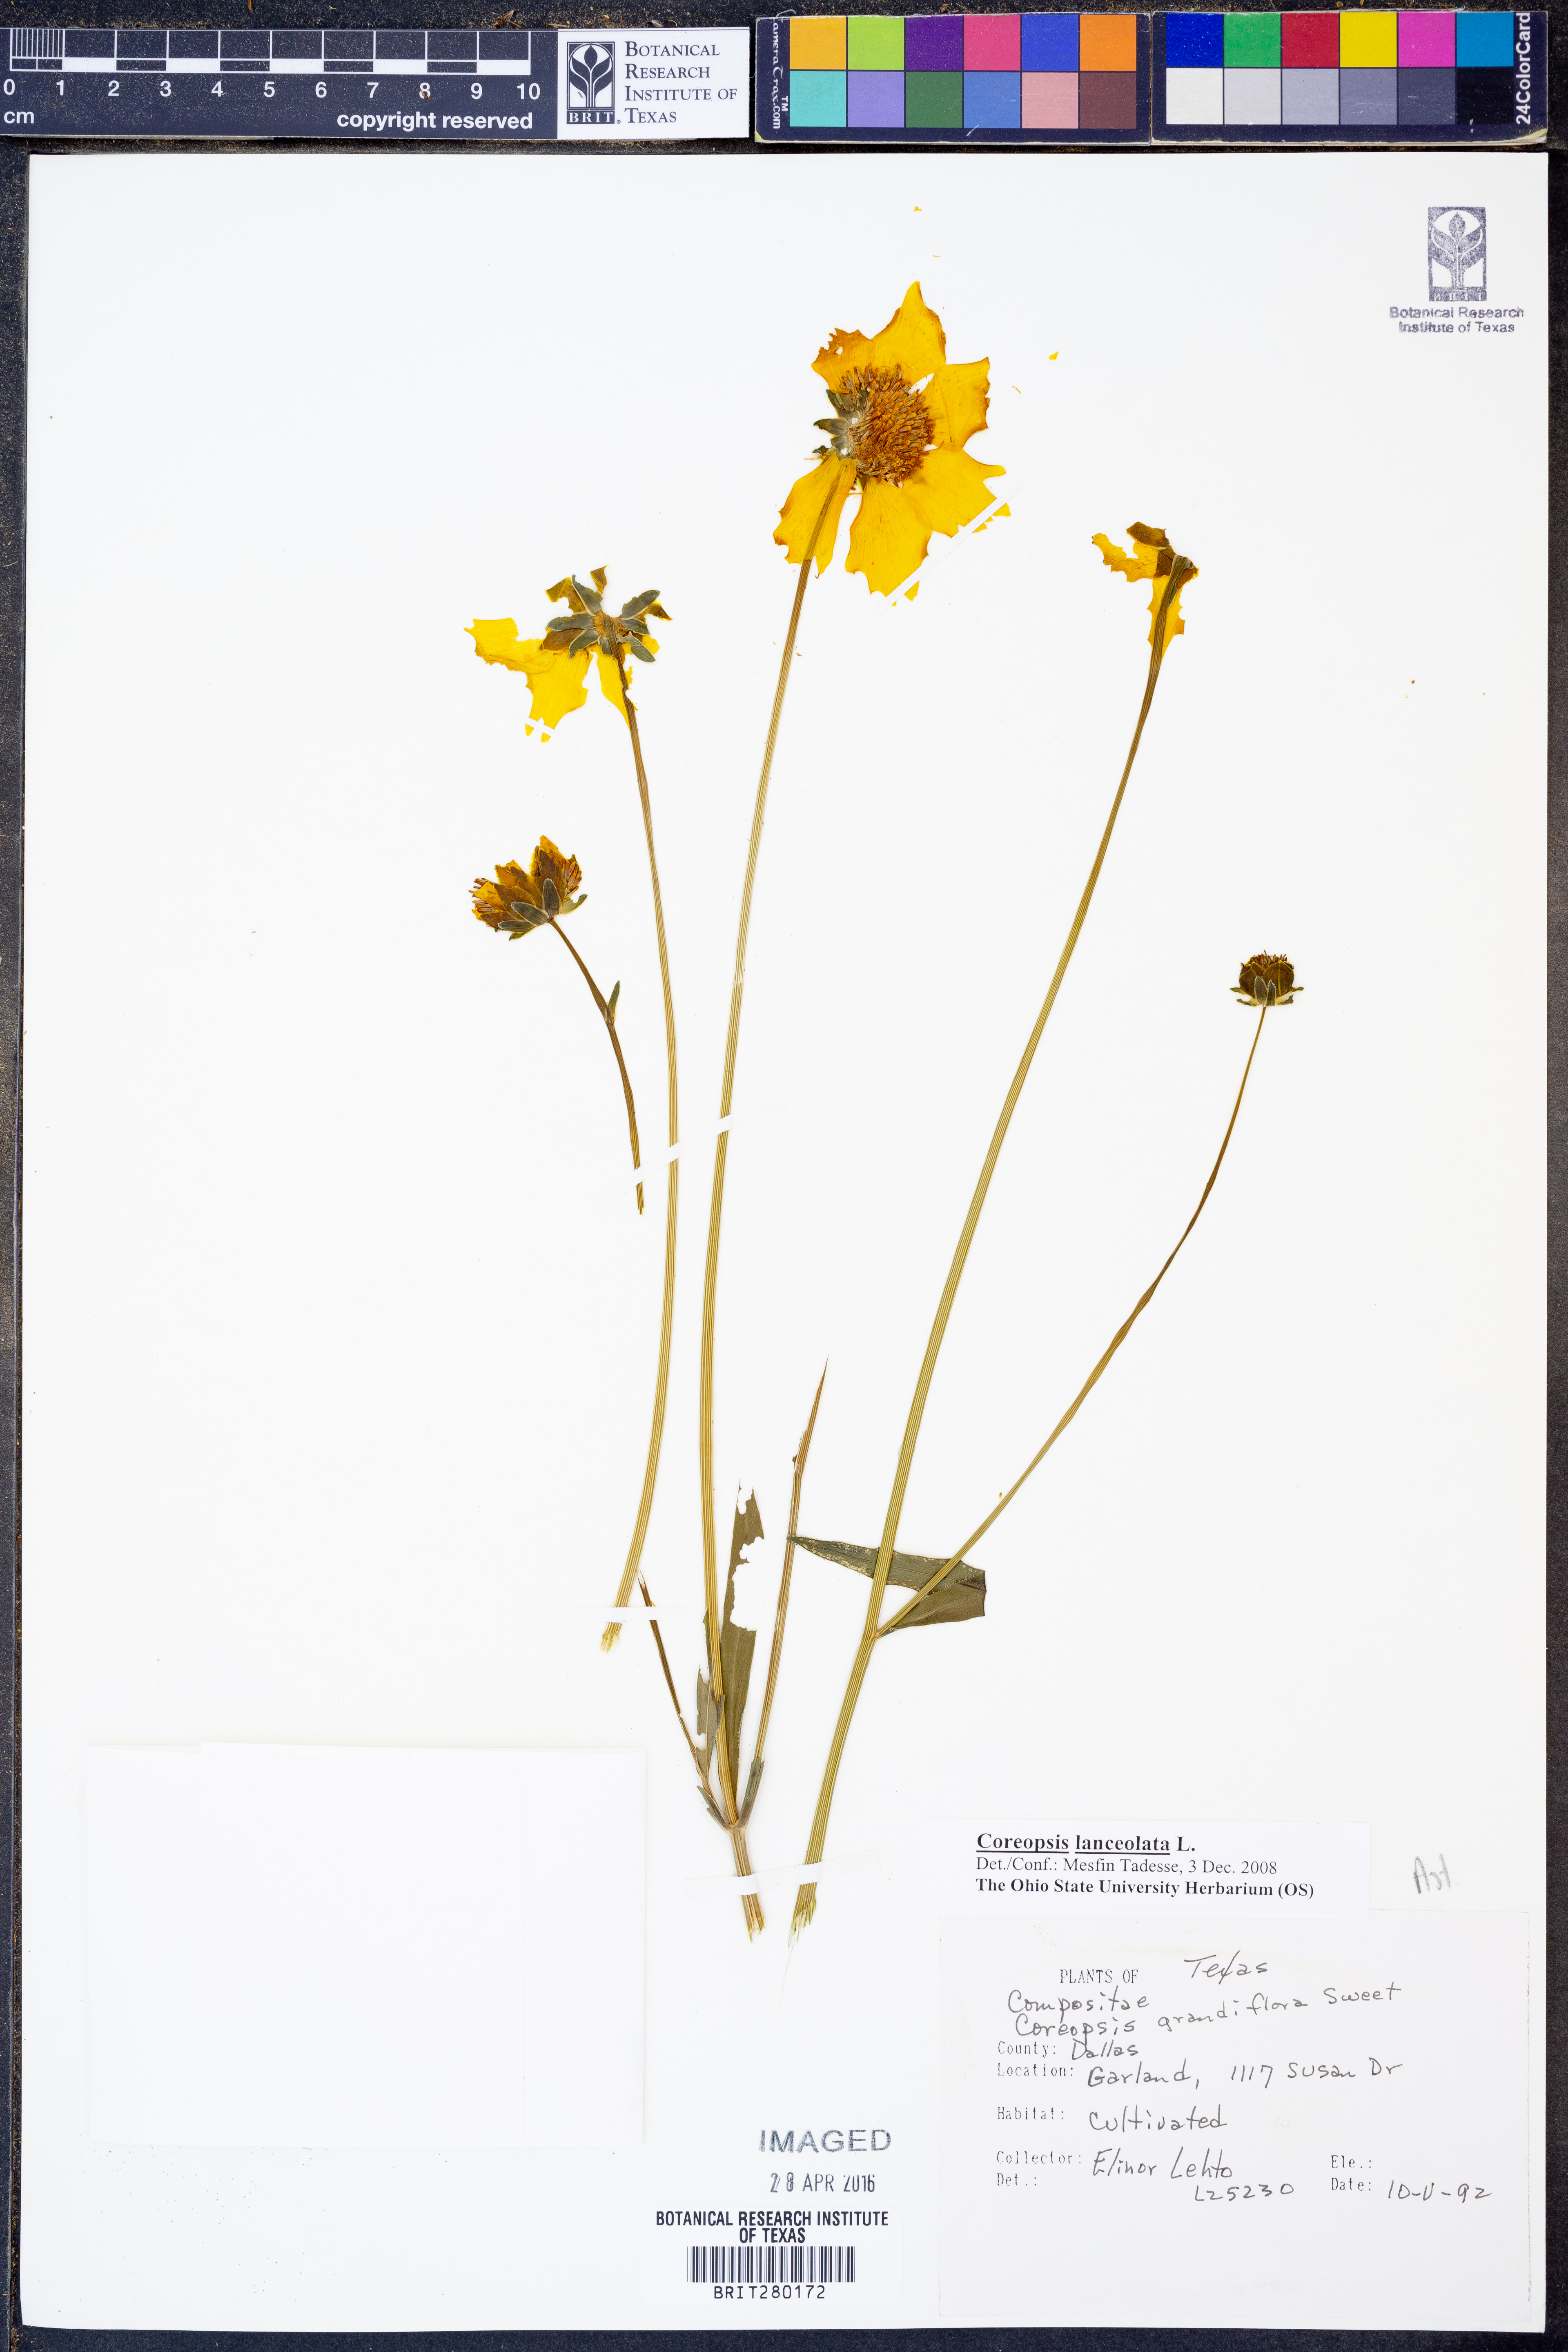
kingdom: Plantae
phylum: Tracheophyta
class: Magnoliopsida
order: Asterales
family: Asteraceae
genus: Coreopsis
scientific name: Coreopsis lanceolata
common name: Garden coreopsis
